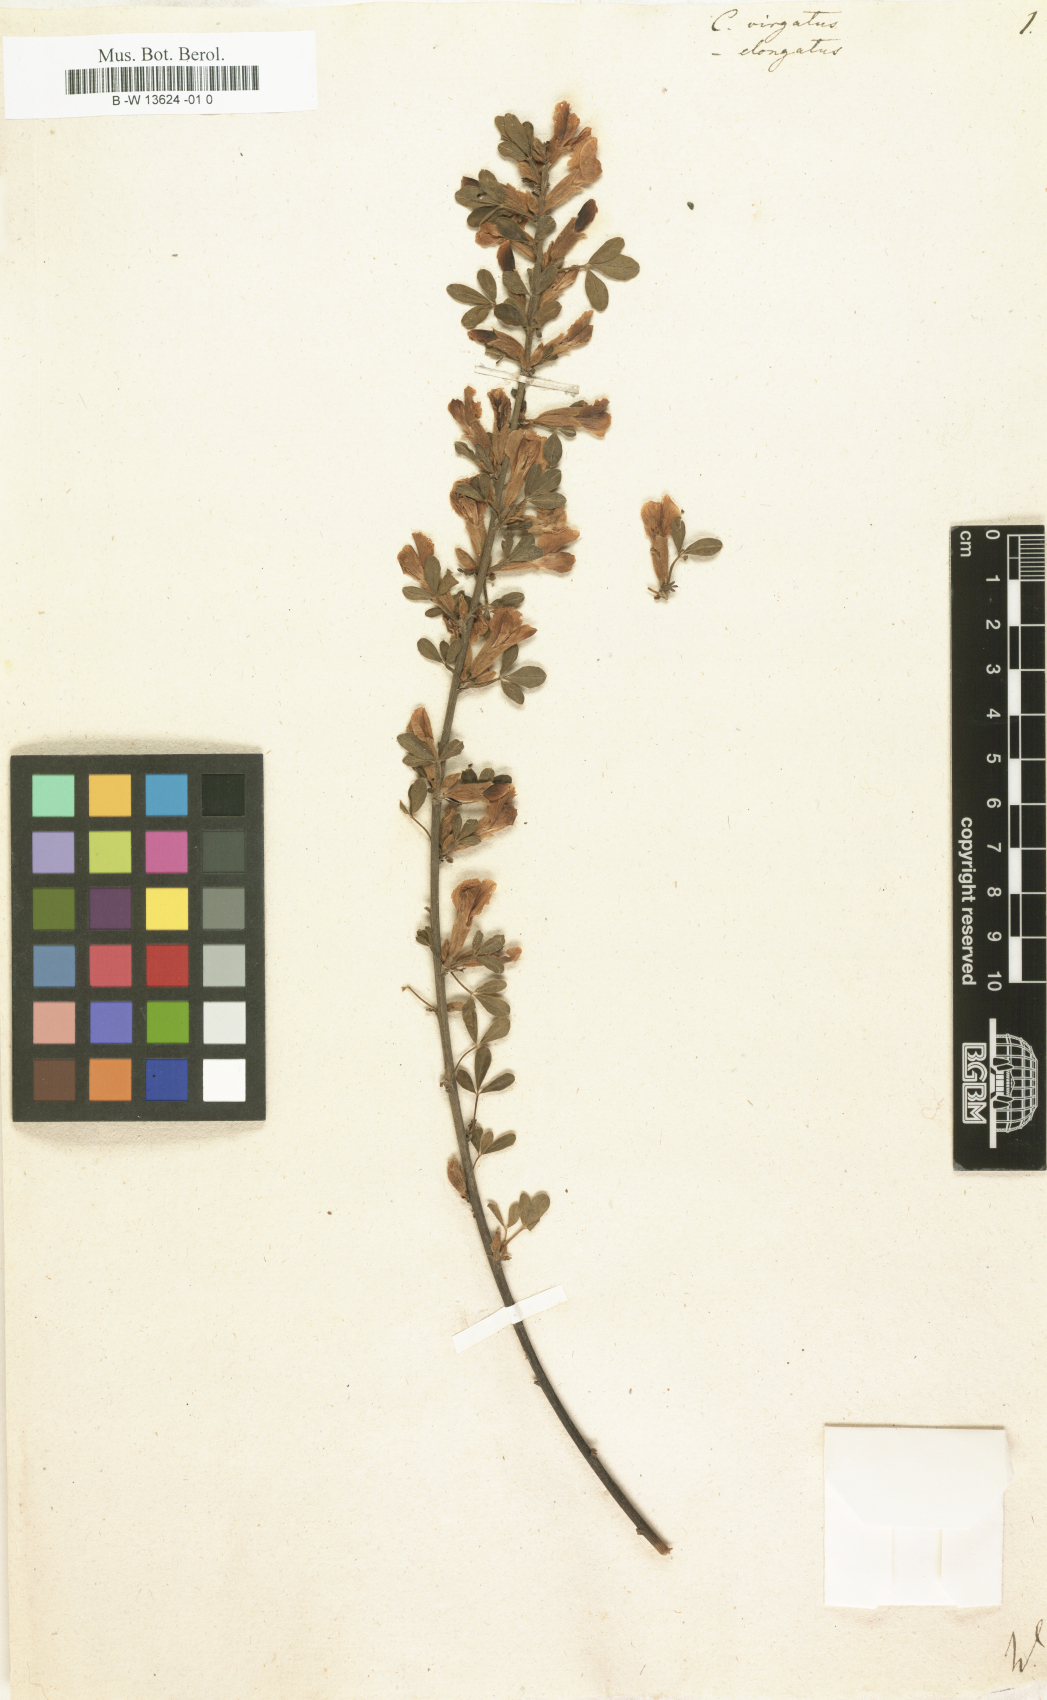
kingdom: Plantae
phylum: Tracheophyta
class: Magnoliopsida
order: Fabales
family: Fabaceae
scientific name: Fabaceae
